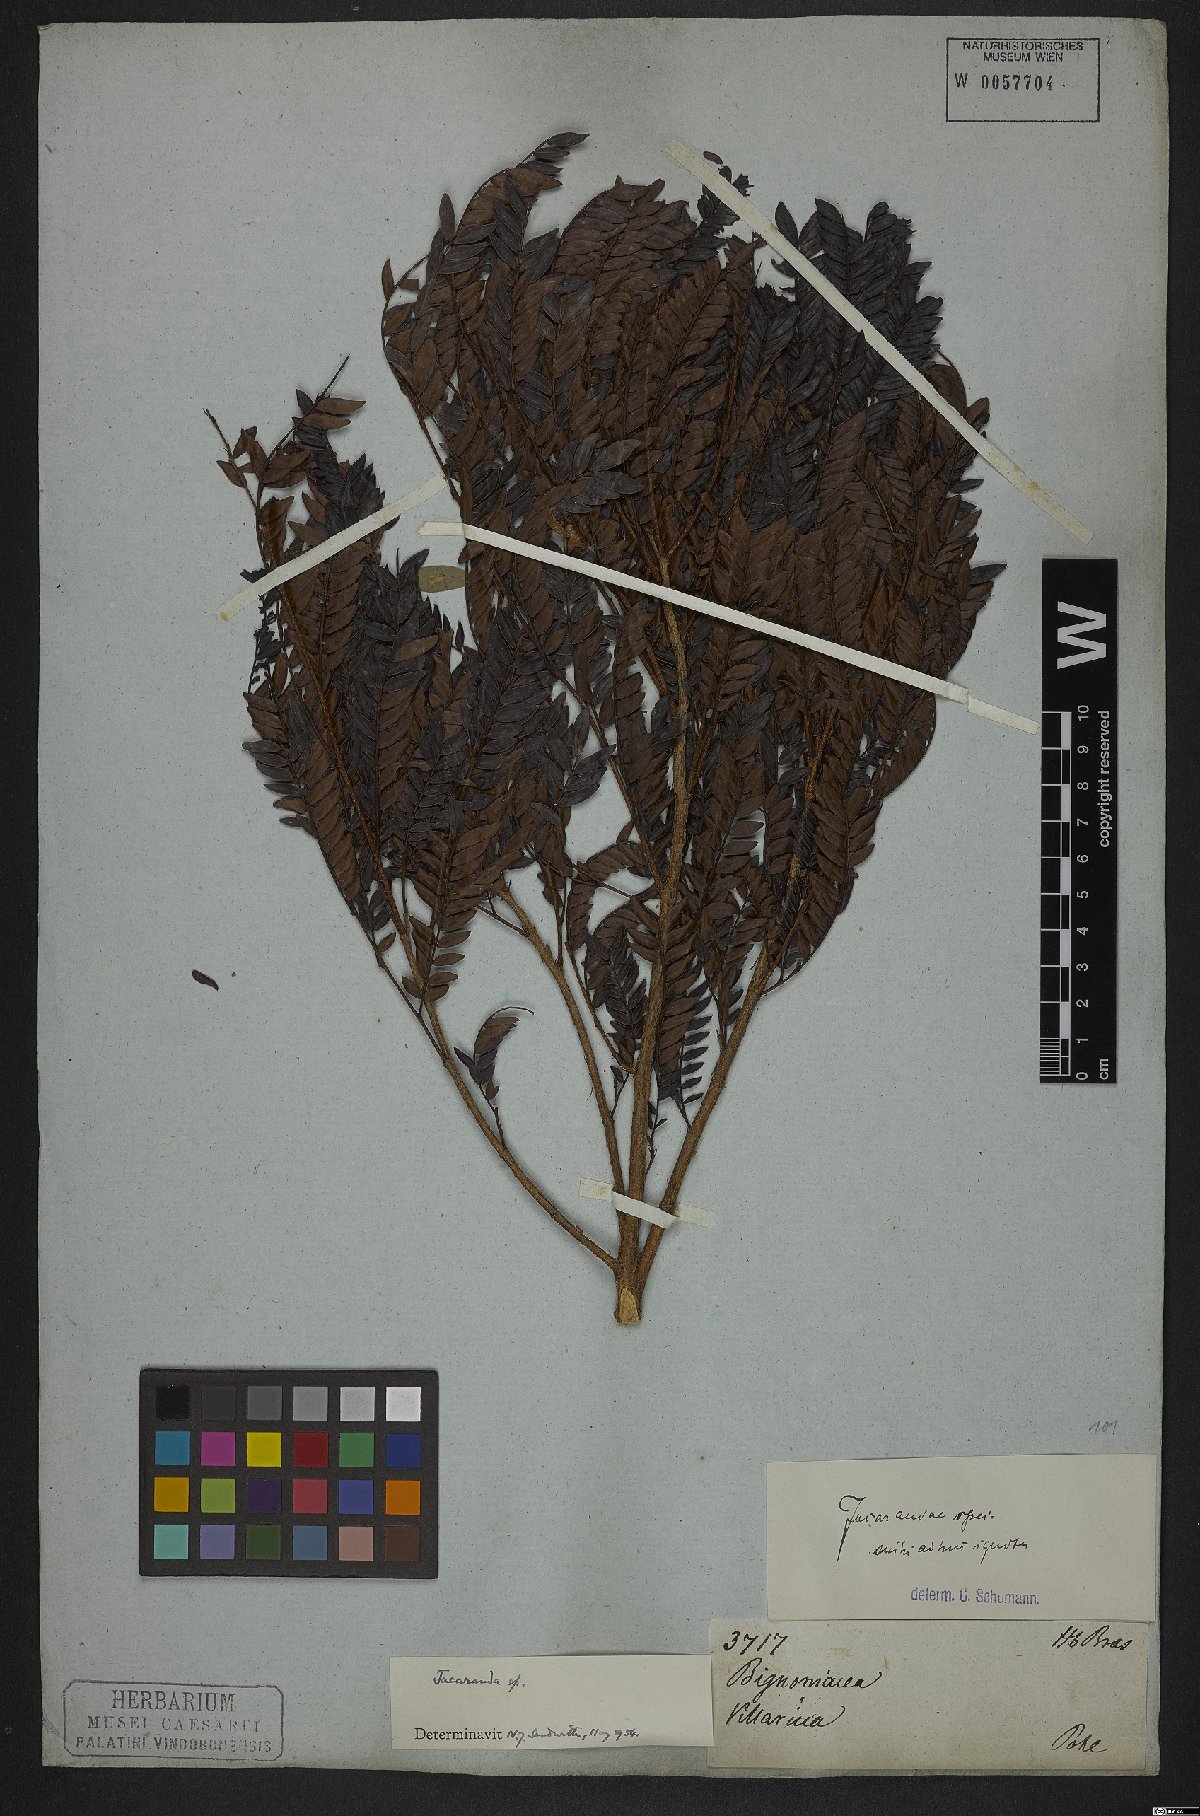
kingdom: Plantae
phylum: Tracheophyta
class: Magnoliopsida
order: Lamiales
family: Bignoniaceae
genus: Jacaranda
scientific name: Jacaranda
